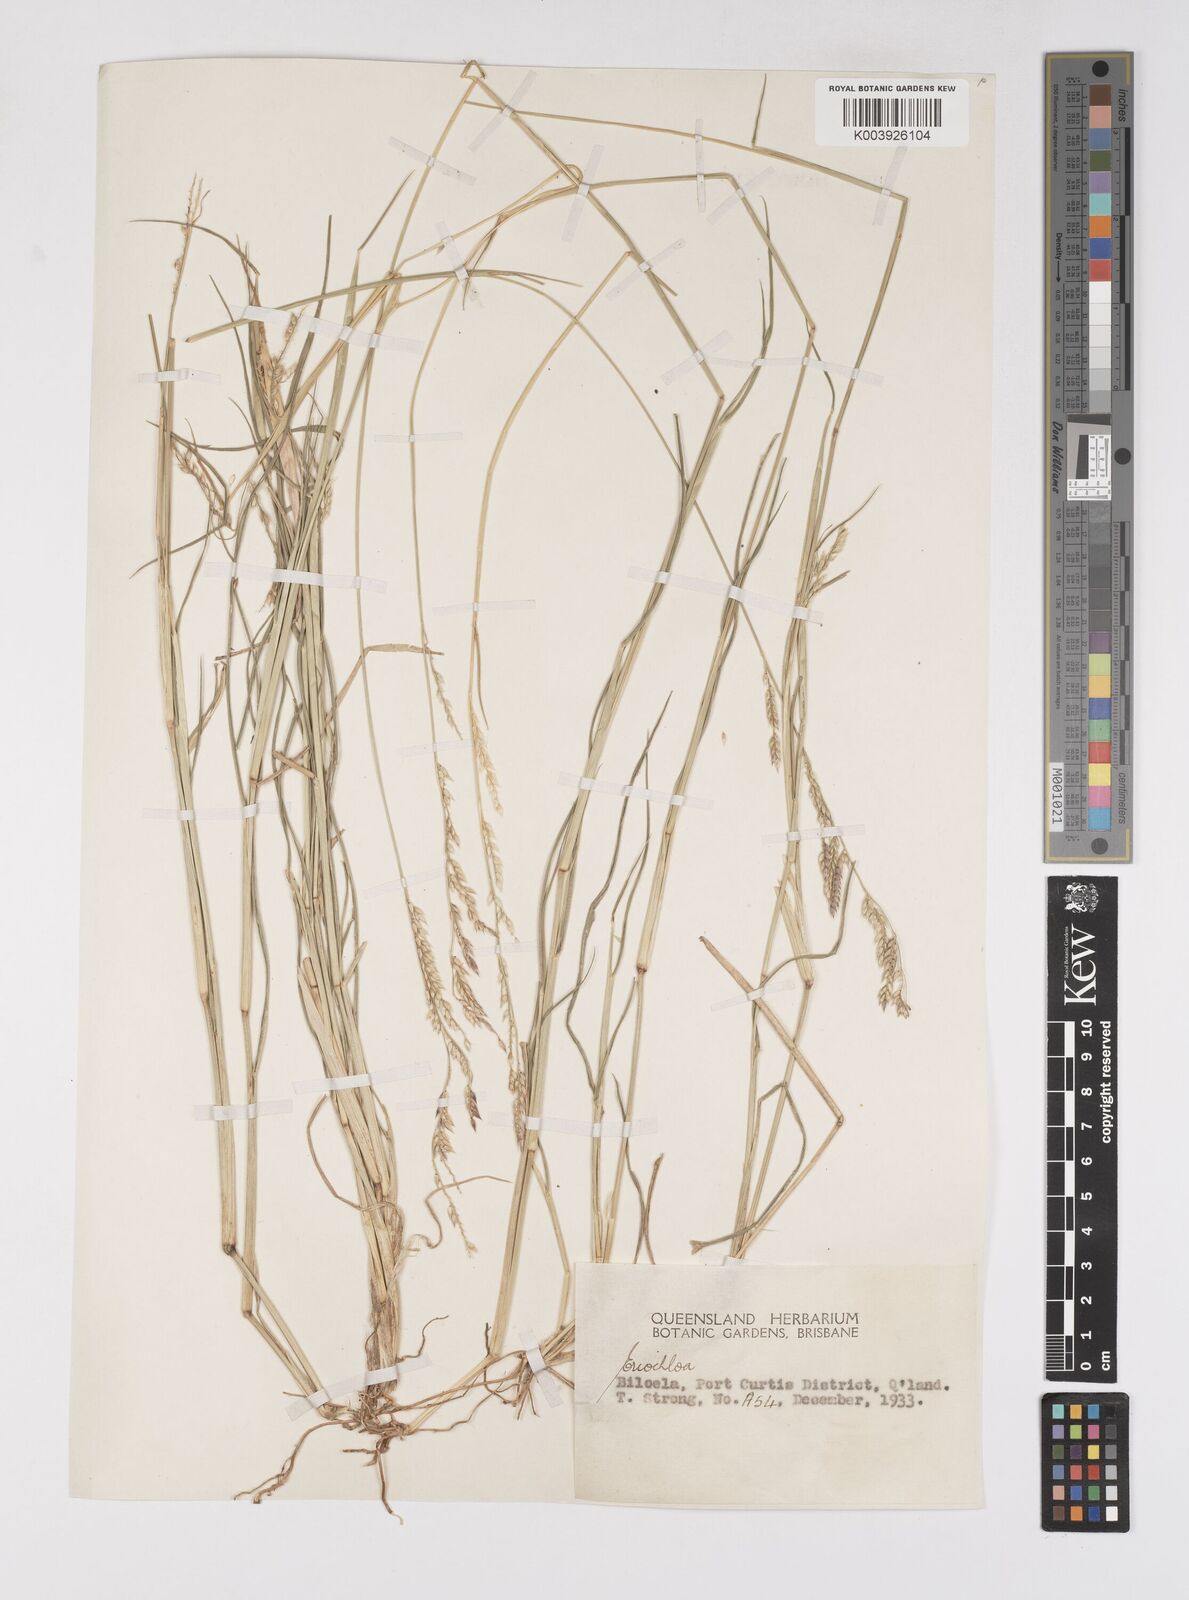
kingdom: Plantae
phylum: Tracheophyta
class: Liliopsida
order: Poales
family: Poaceae
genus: Eriochloa
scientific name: Eriochloa
